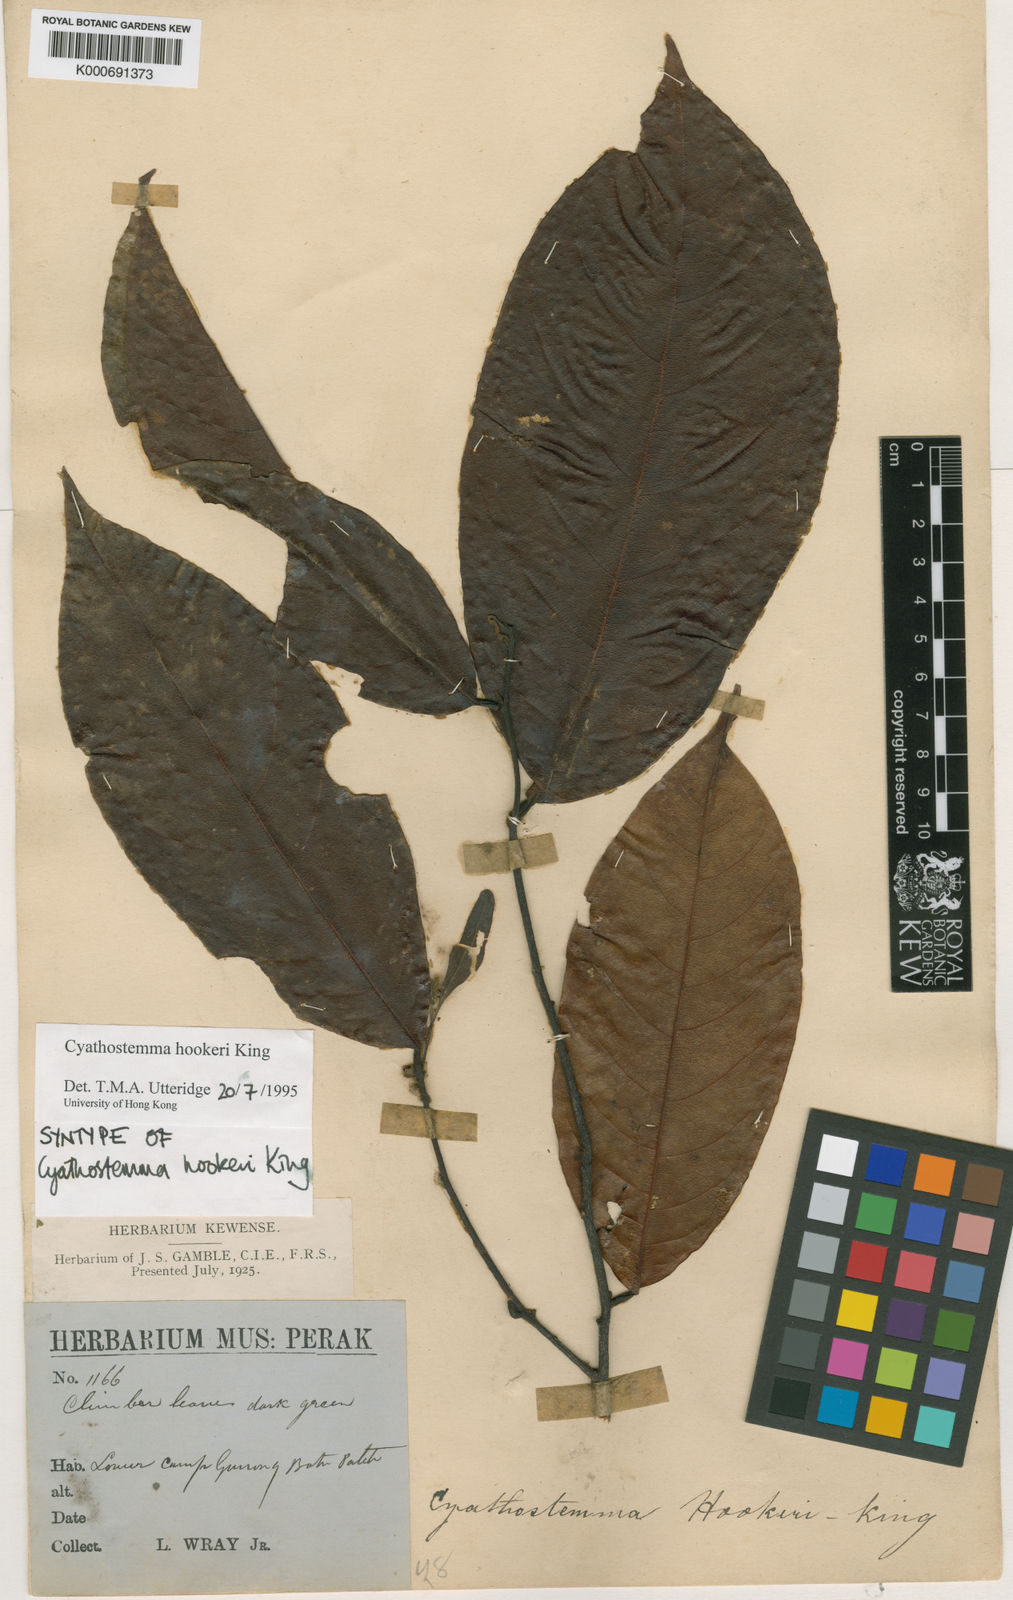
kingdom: Plantae
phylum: Tracheophyta
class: Magnoliopsida
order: Magnoliales
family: Annonaceae
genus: Uvaria
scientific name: Uvaria clementis
